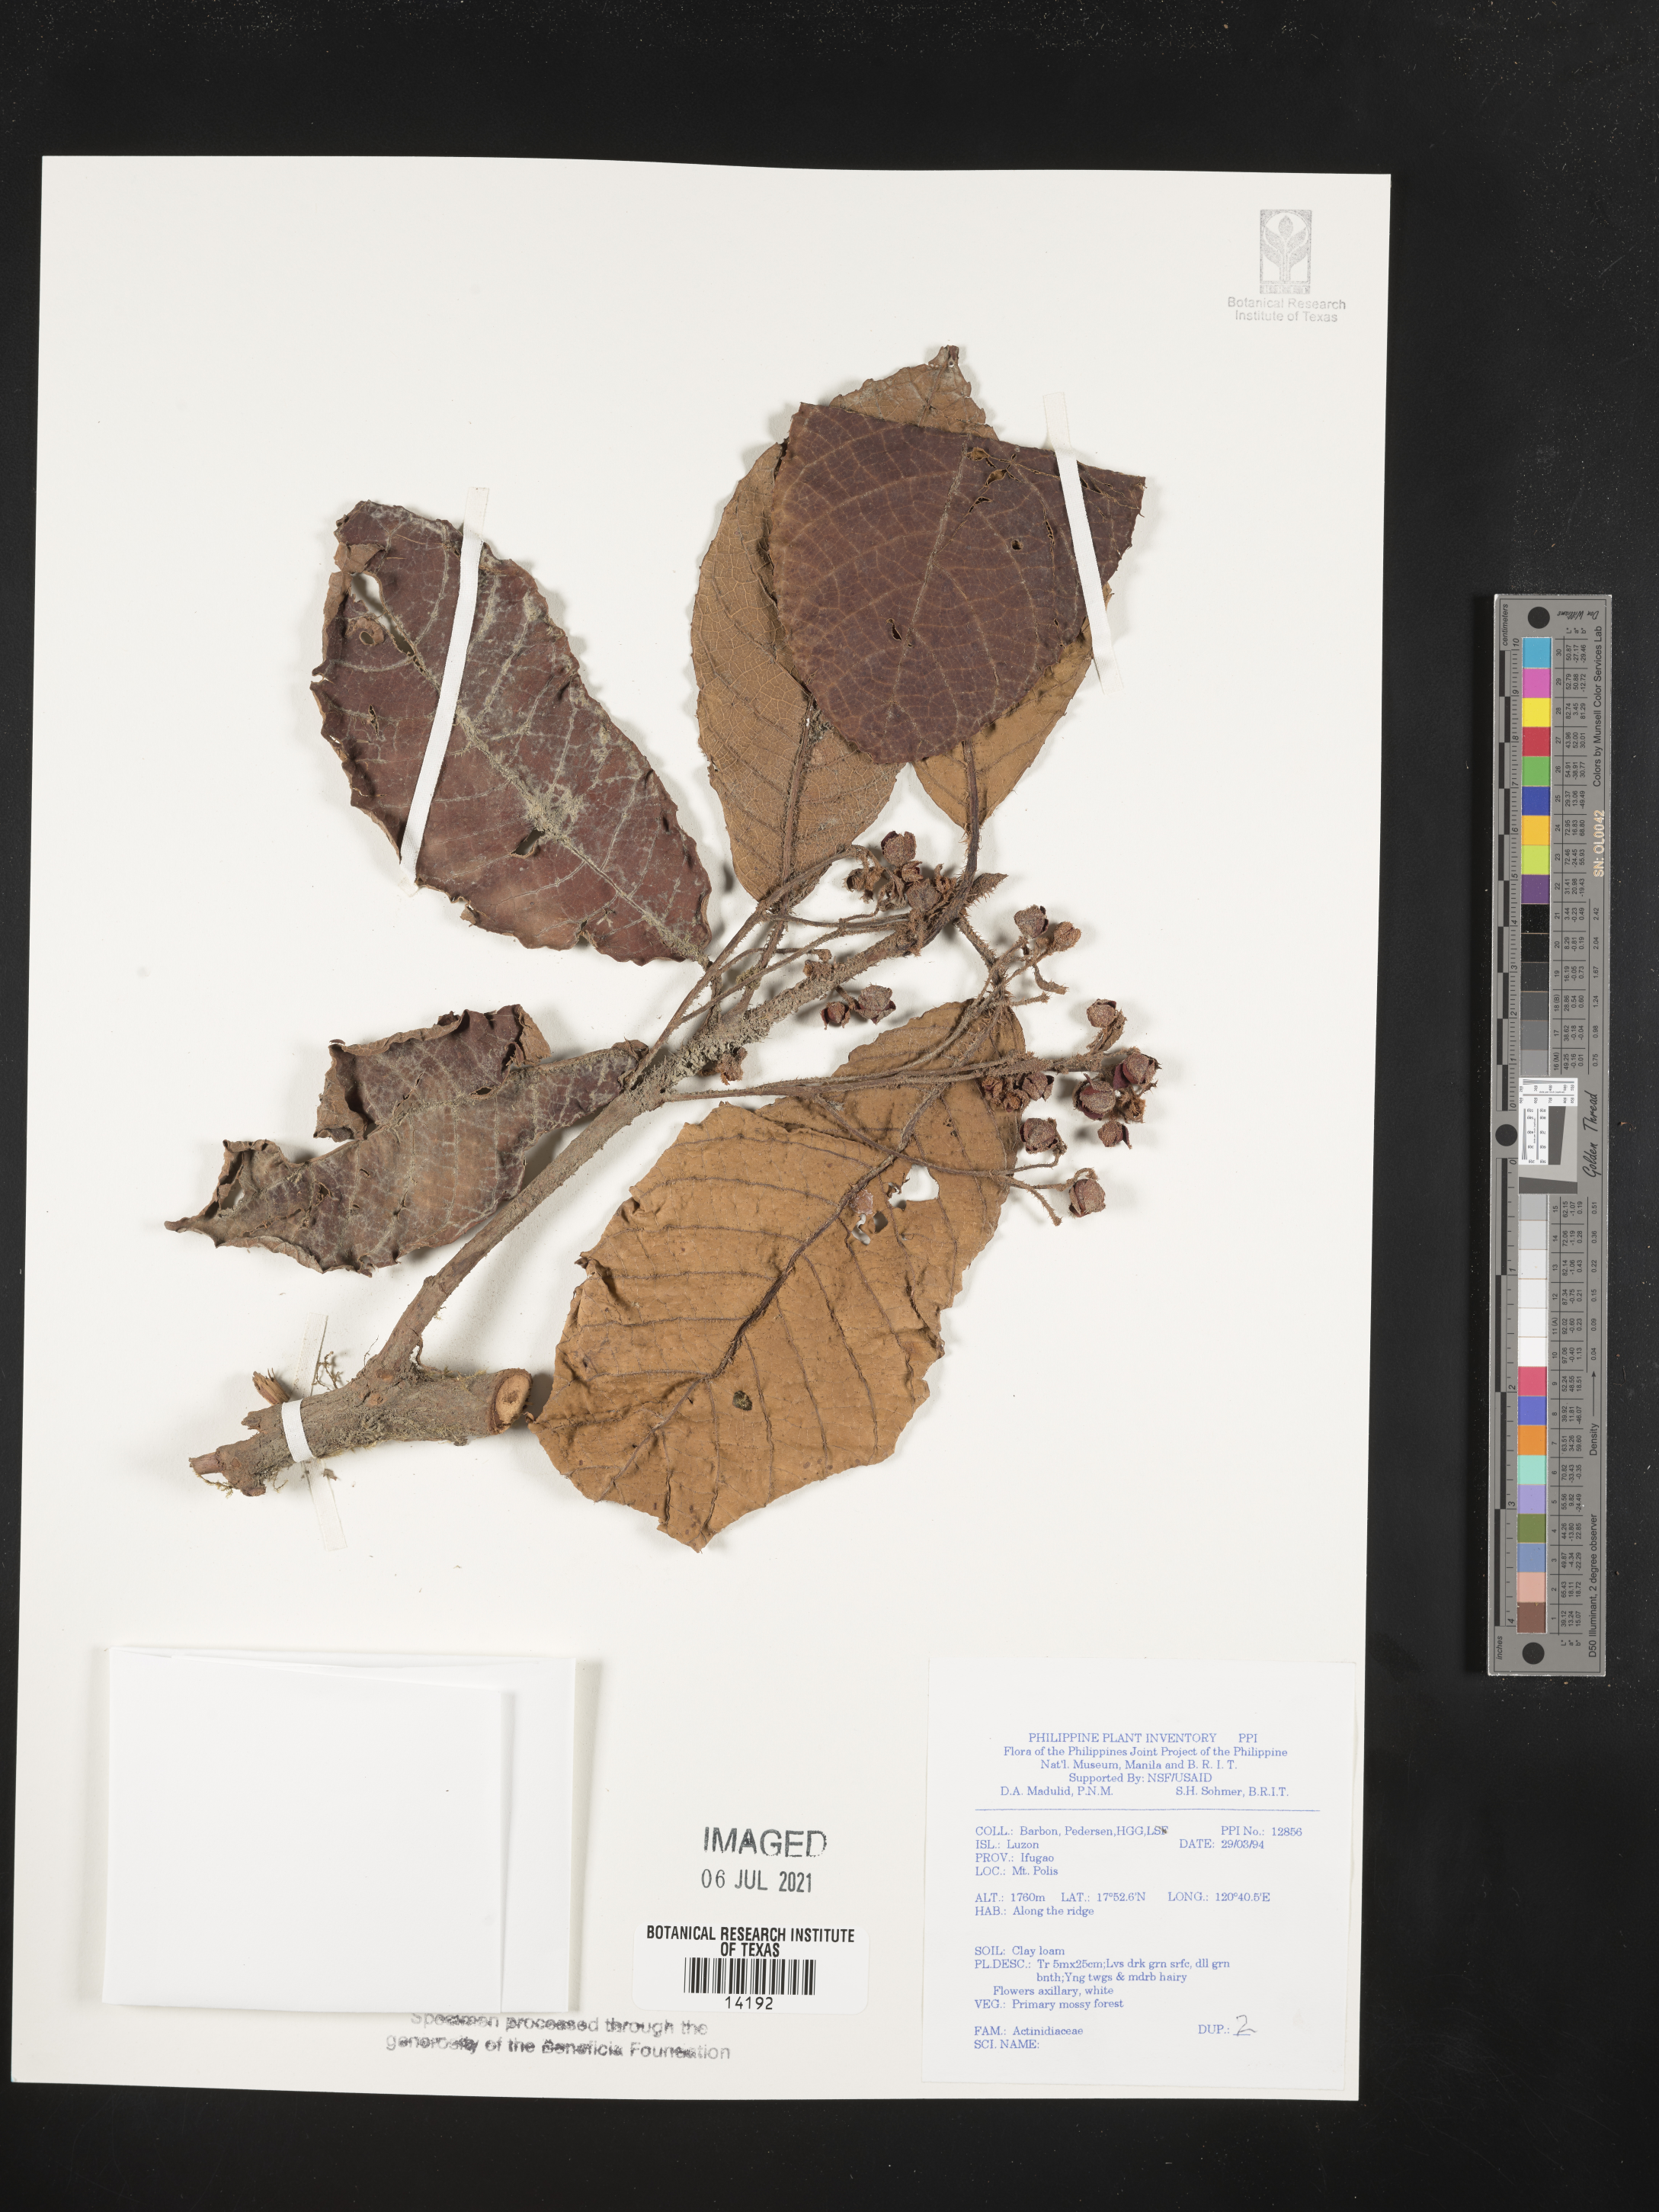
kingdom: Plantae
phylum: Tracheophyta
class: Magnoliopsida
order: Ericales
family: Actinidiaceae
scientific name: Actinidiaceae
